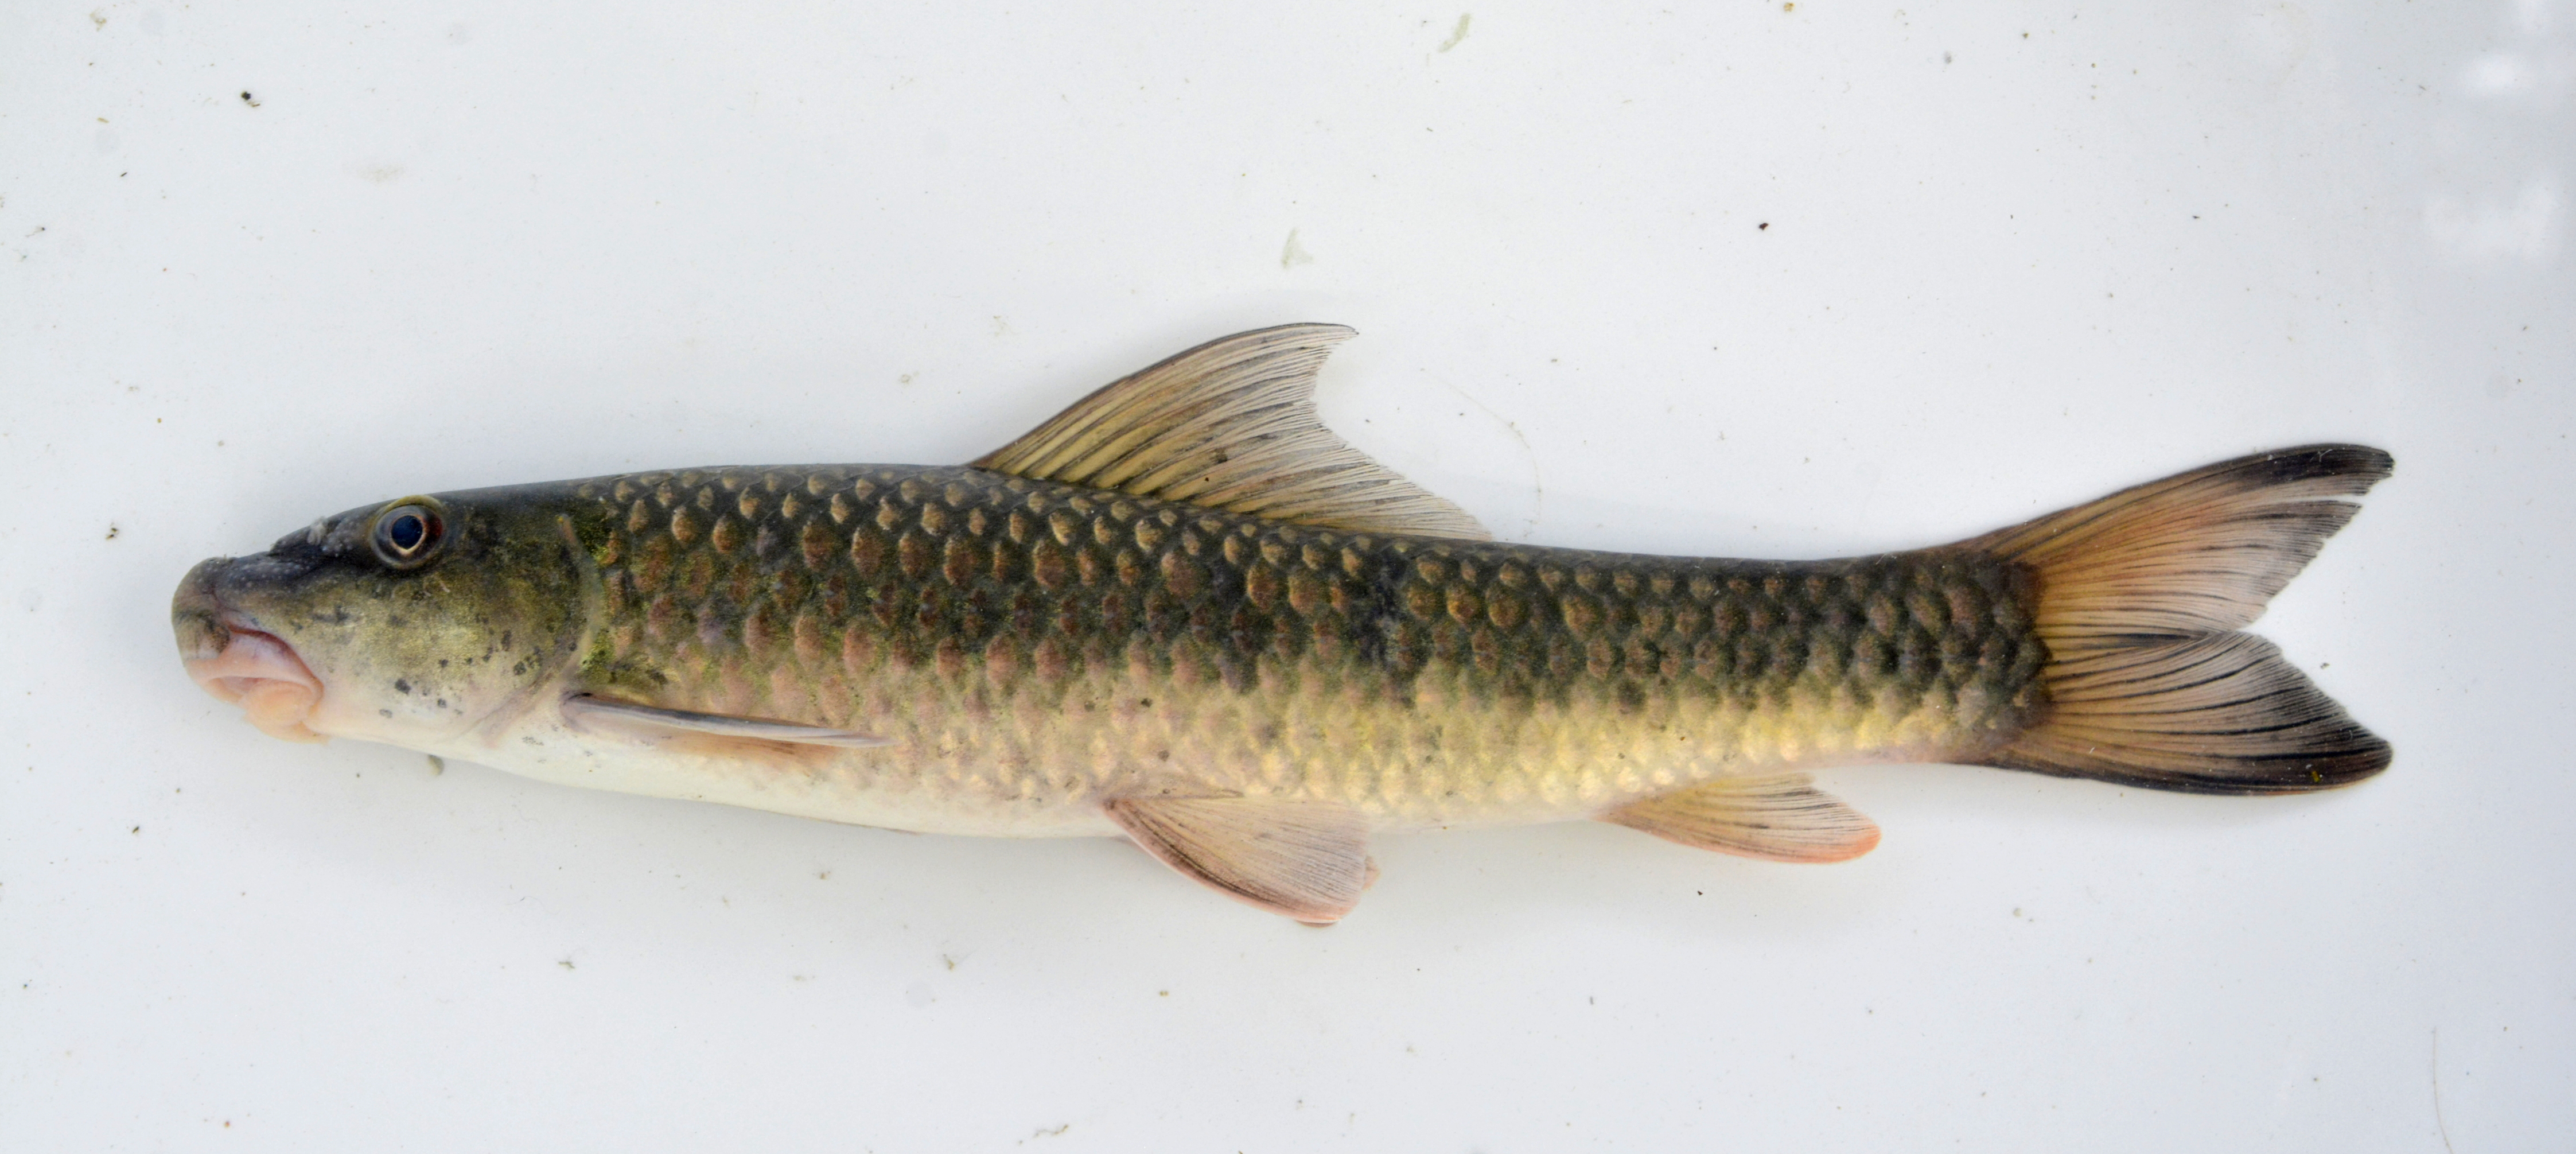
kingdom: Animalia
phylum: Chordata
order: Cypriniformes
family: Cyprinidae
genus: Labeo
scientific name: Labeo cylindricus
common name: Redeye labeo
